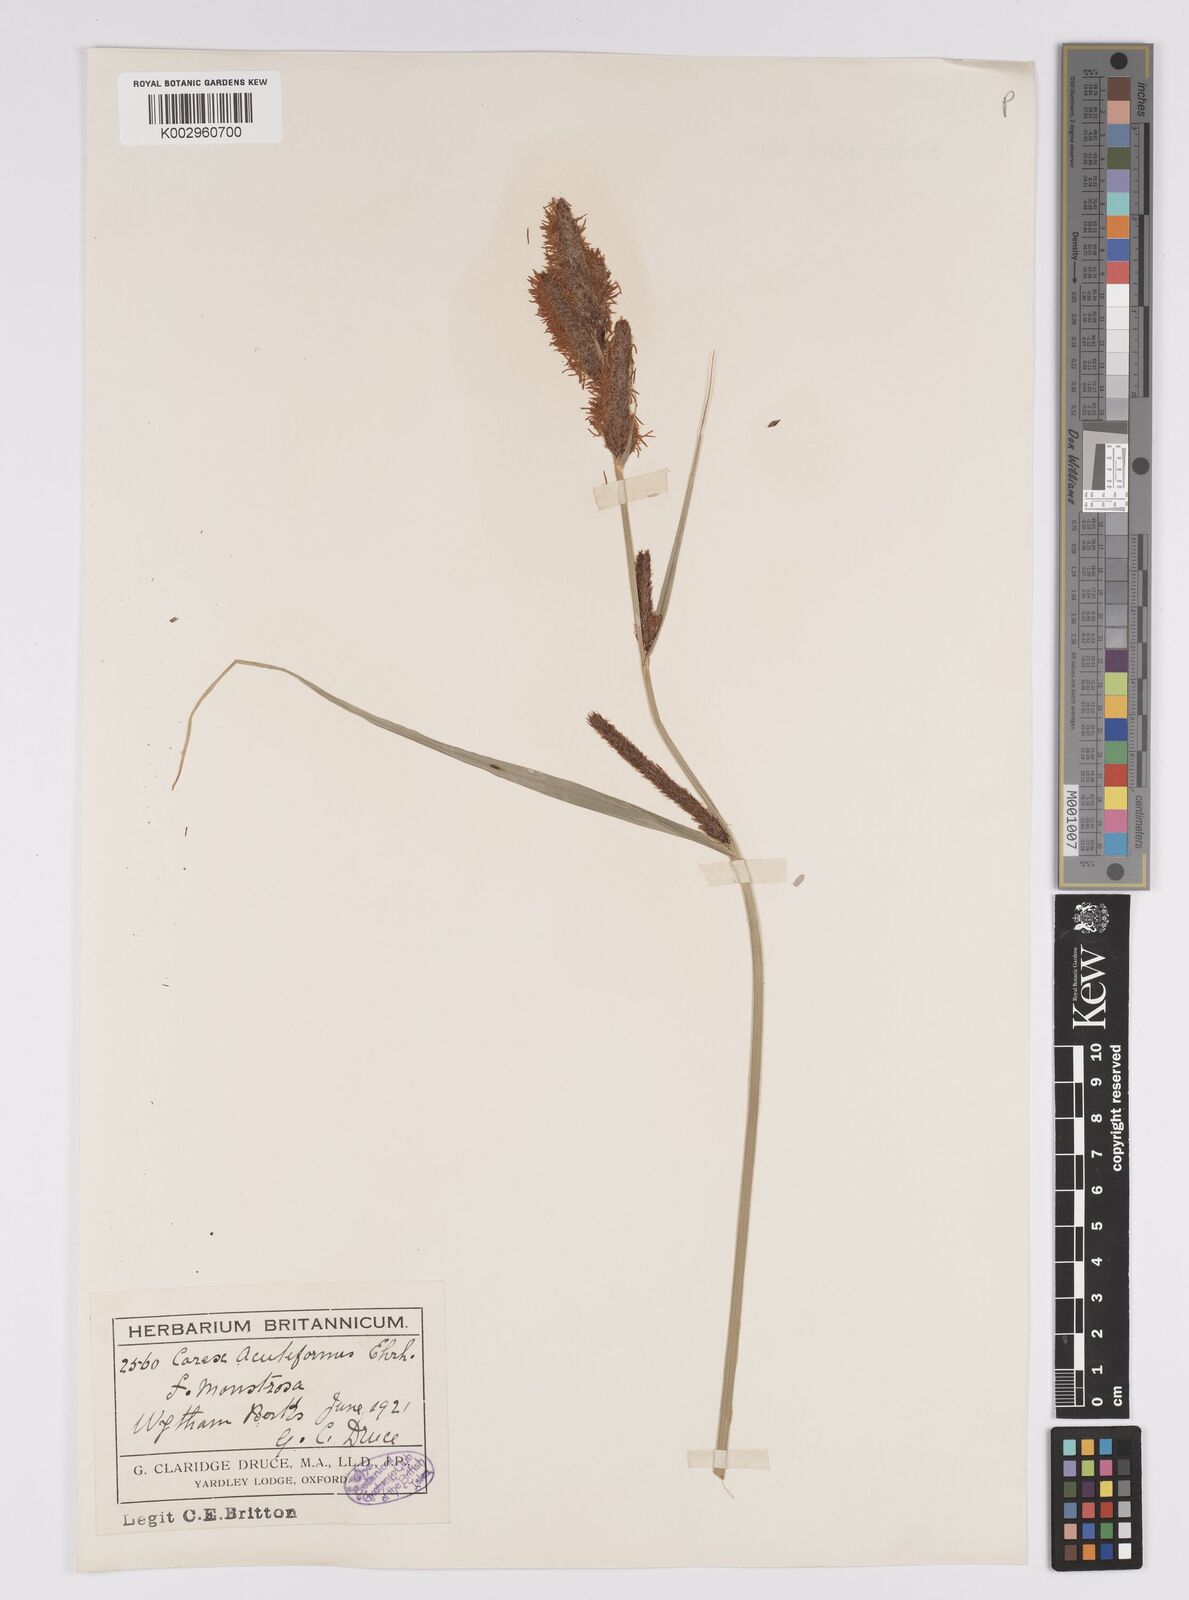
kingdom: Plantae
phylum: Tracheophyta
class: Liliopsida
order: Poales
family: Cyperaceae
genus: Carex
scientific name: Carex acutiformis
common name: Lesser pond-sedge
